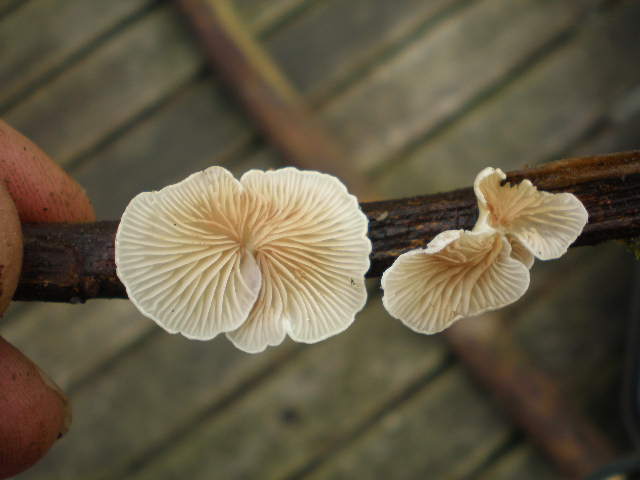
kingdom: Fungi
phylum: Basidiomycota
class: Agaricomycetes
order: Agaricales
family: Crepidotaceae
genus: Crepidotus
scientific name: Crepidotus luteolus
